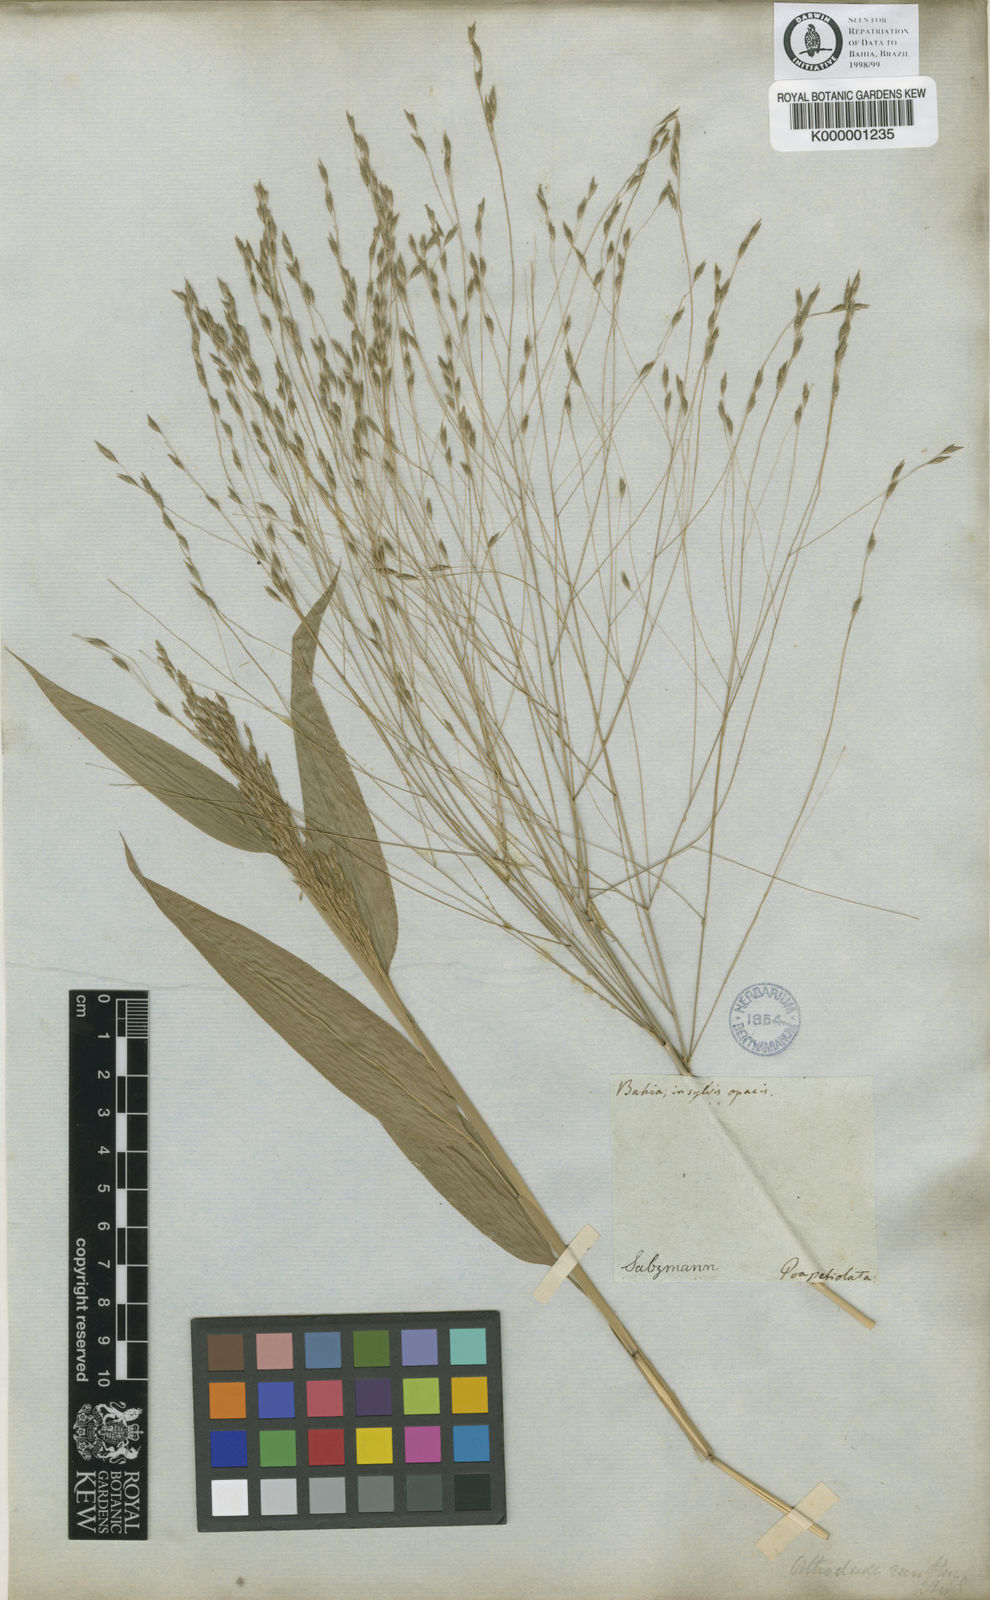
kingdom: Plantae
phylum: Tracheophyta
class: Liliopsida
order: Poales
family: Poaceae
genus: Orthoclada
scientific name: Orthoclada laxa
